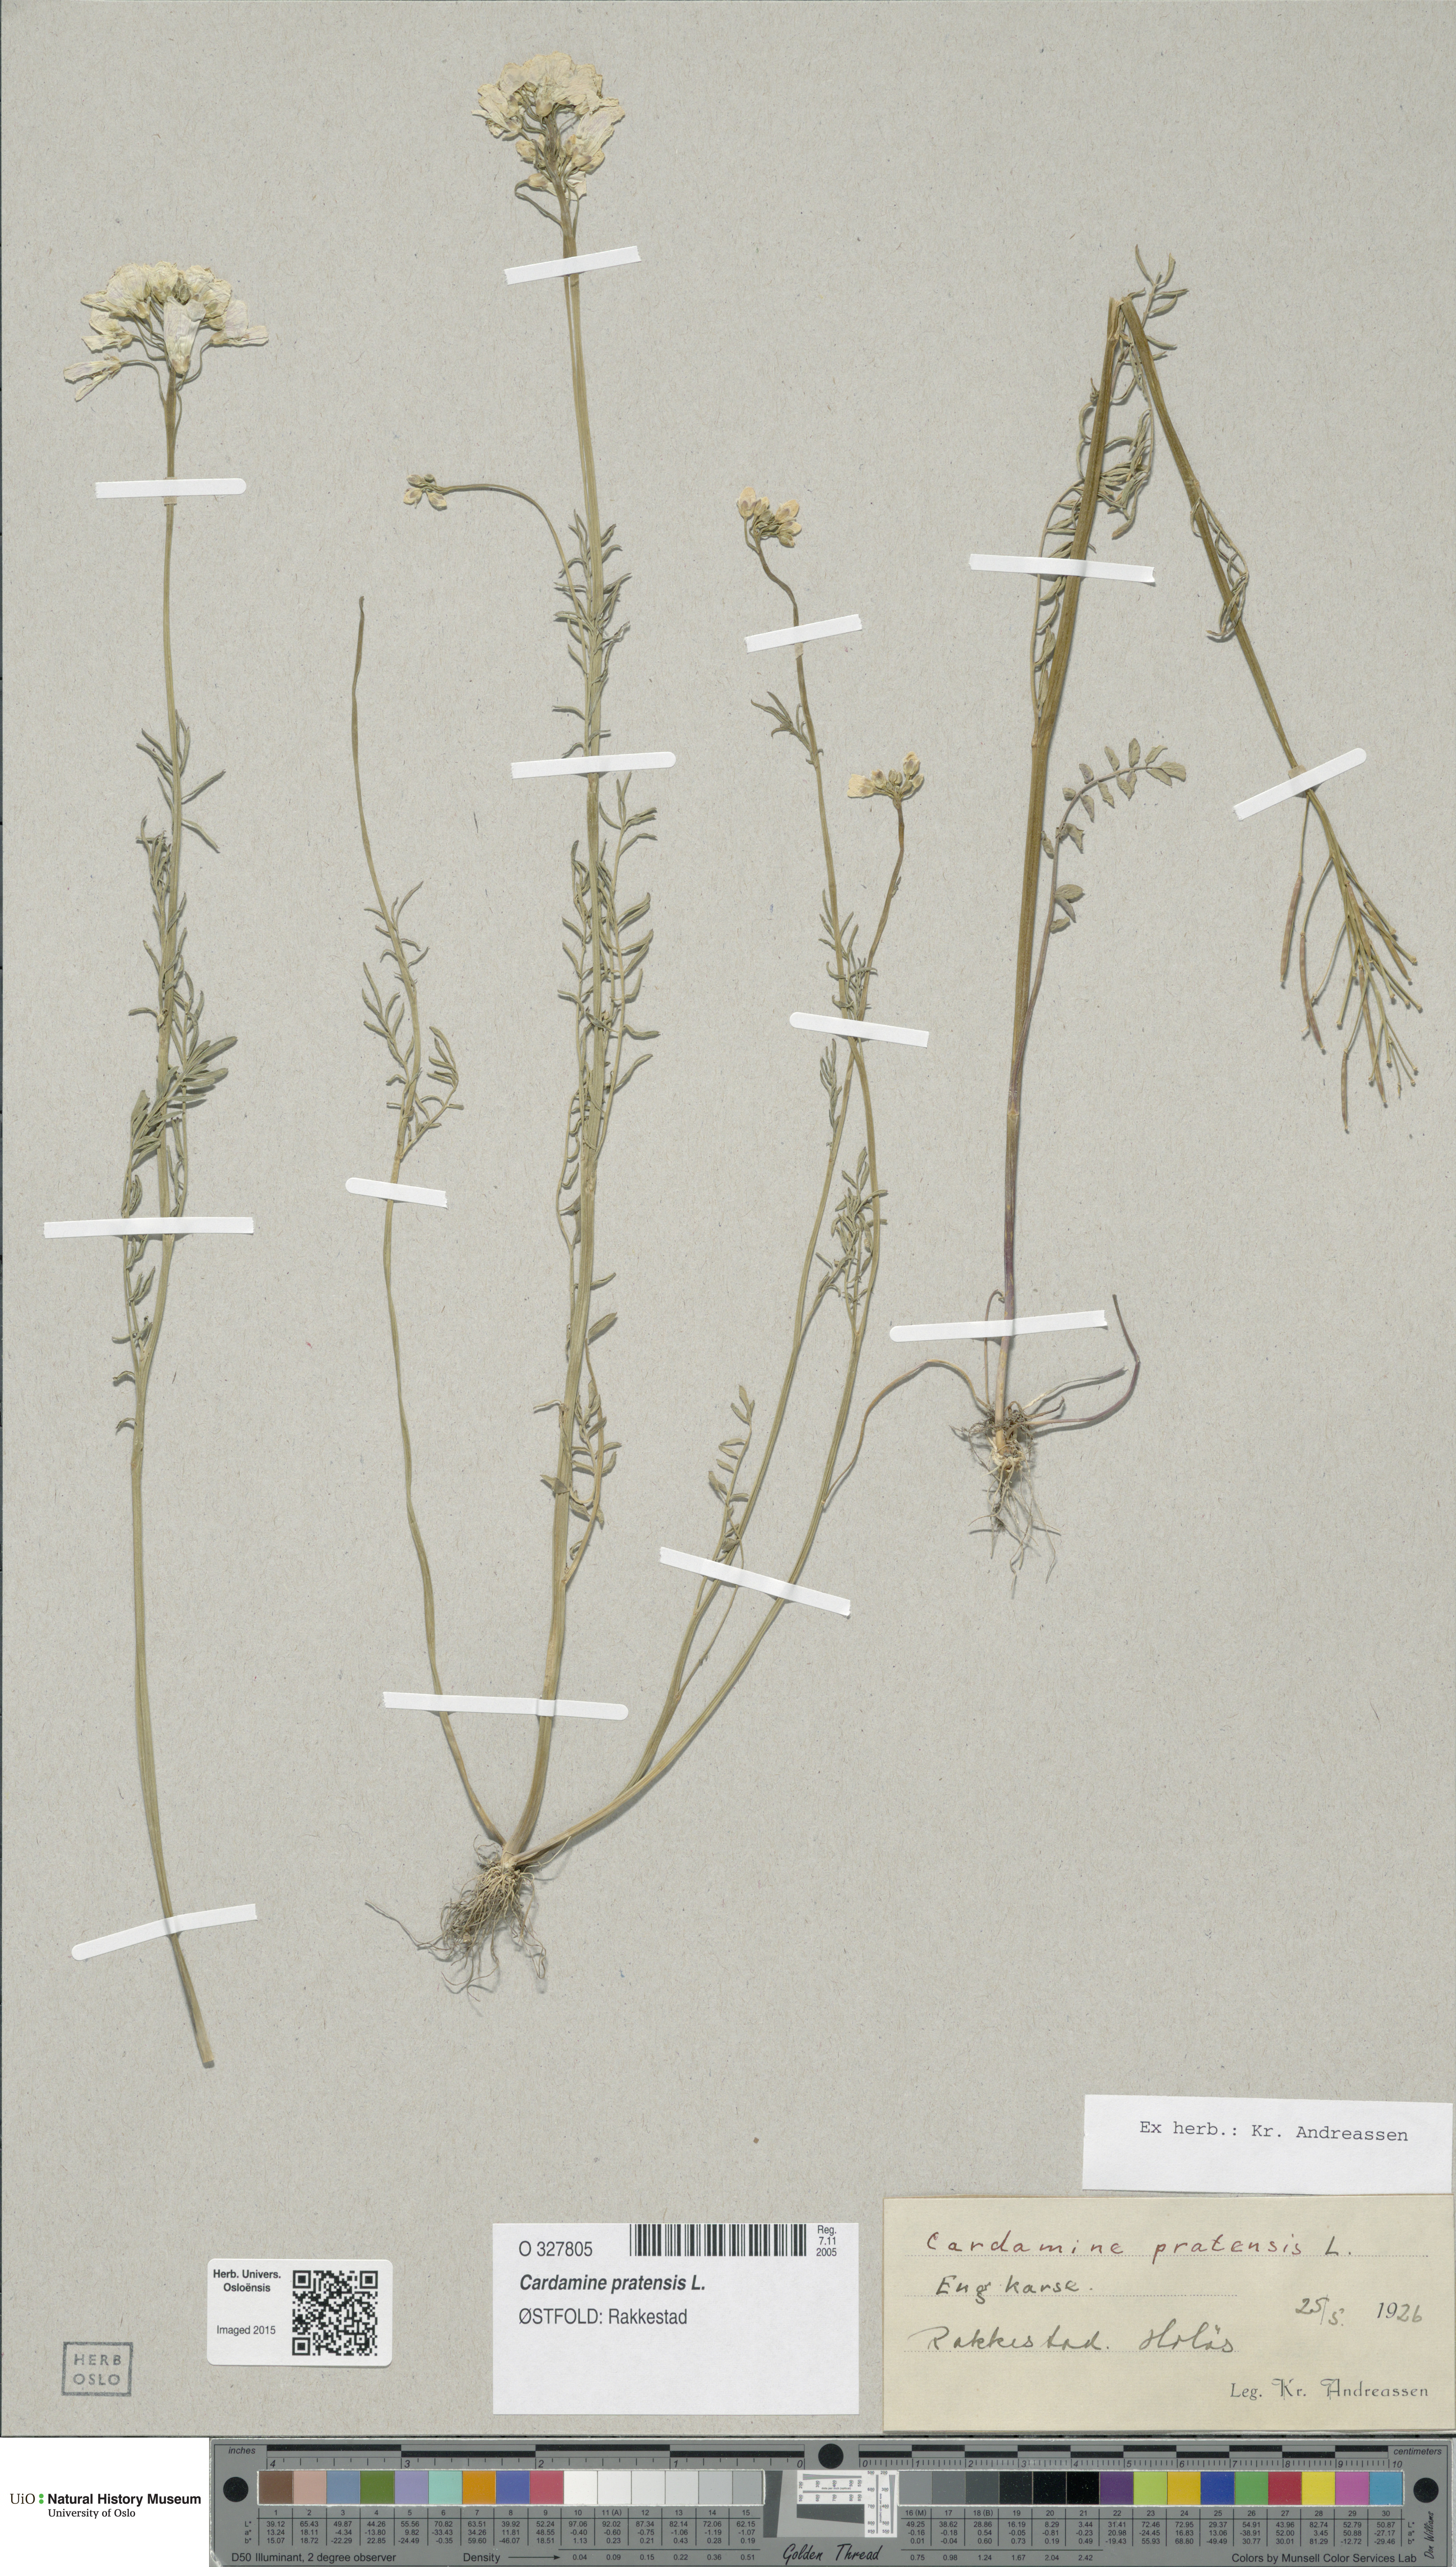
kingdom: Plantae
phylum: Tracheophyta
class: Magnoliopsida
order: Brassicales
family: Brassicaceae
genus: Cardamine
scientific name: Cardamine pratensis
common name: Cuckoo flower
